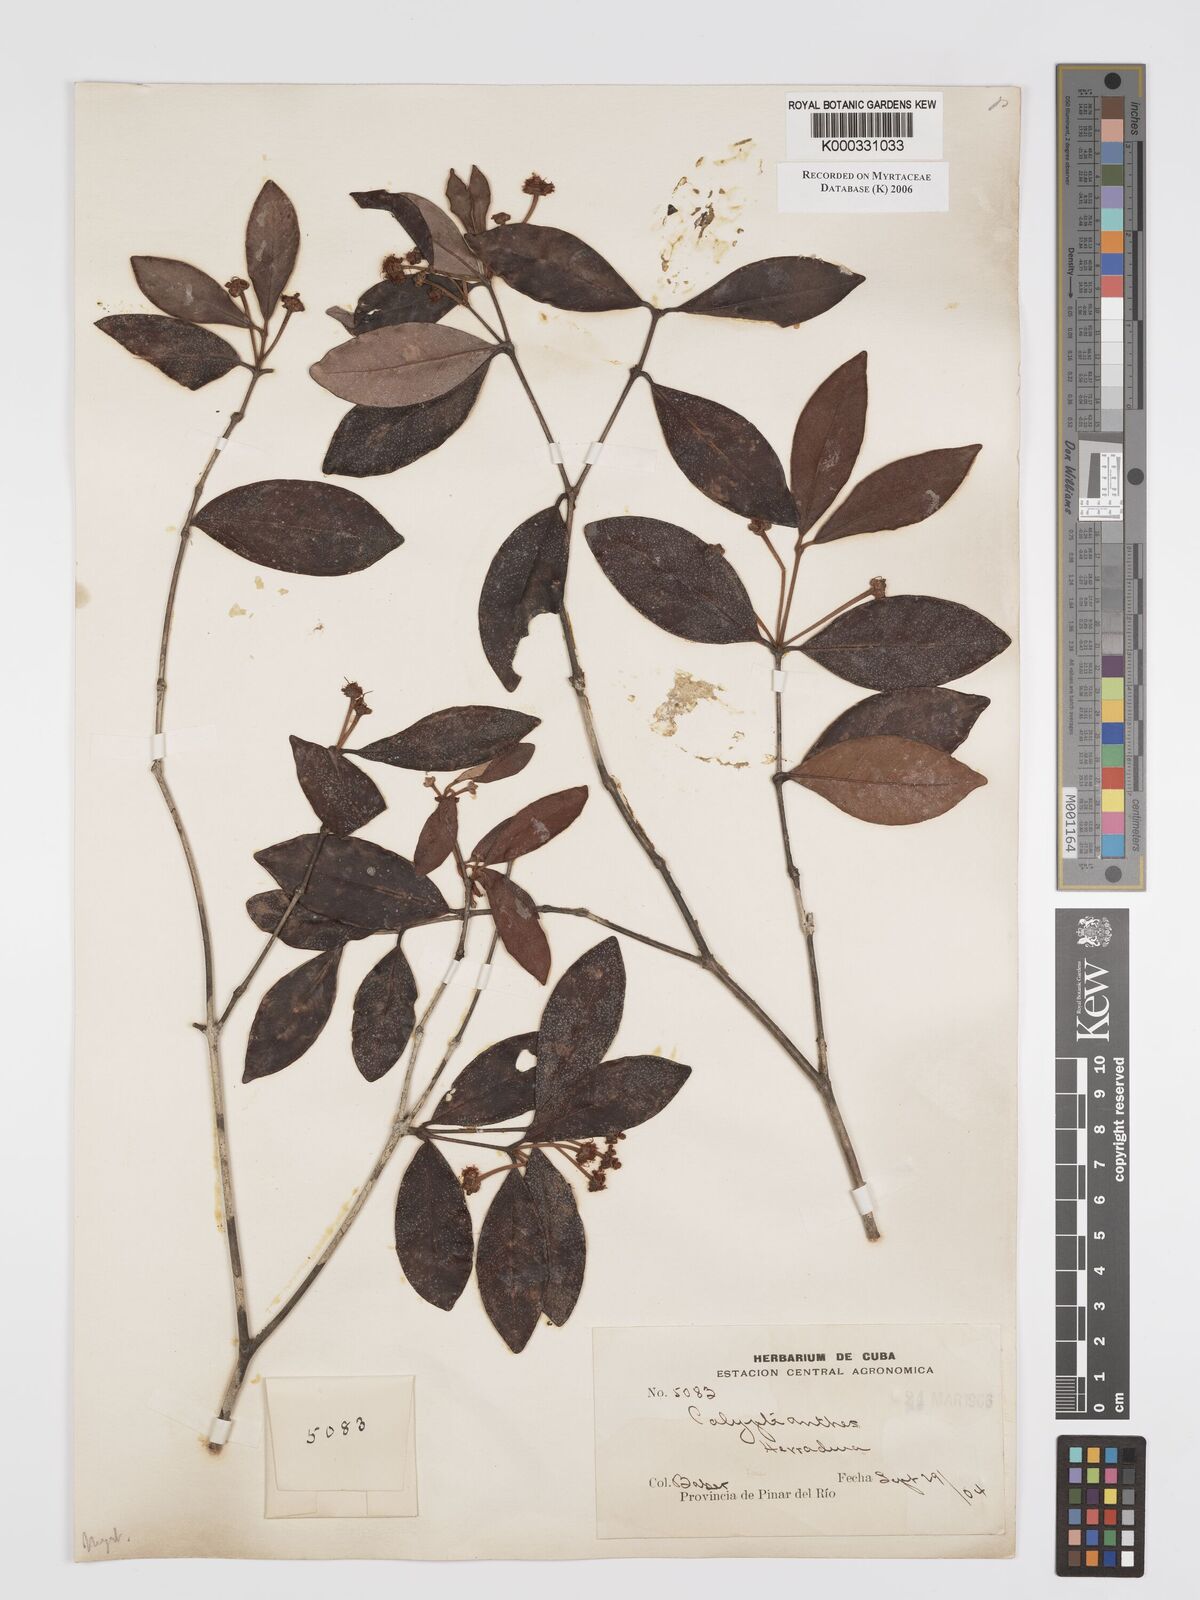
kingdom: Plantae
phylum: Tracheophyta
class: Magnoliopsida
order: Myrtales
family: Myrtaceae
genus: Calyptranthes
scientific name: Calyptranthes
